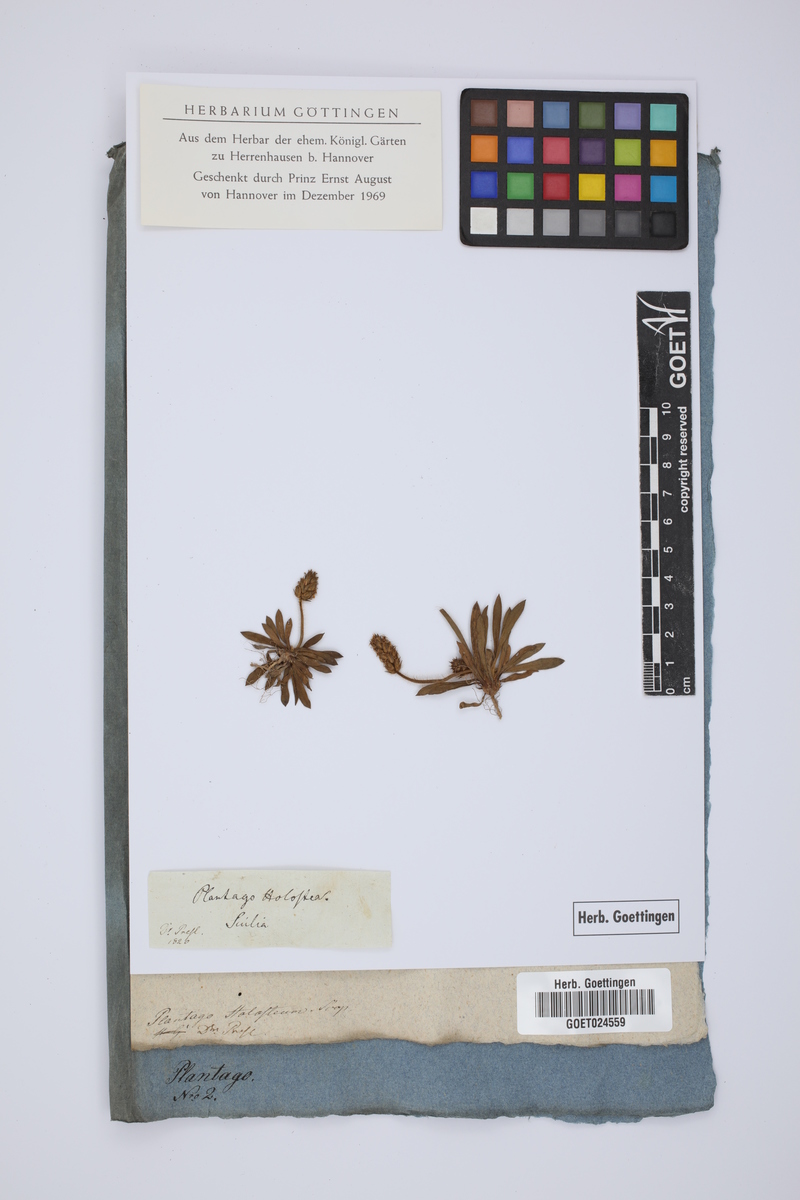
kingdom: Plantae
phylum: Tracheophyta
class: Magnoliopsida
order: Lamiales
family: Plantaginaceae
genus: Plantago
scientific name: Plantago subulata
